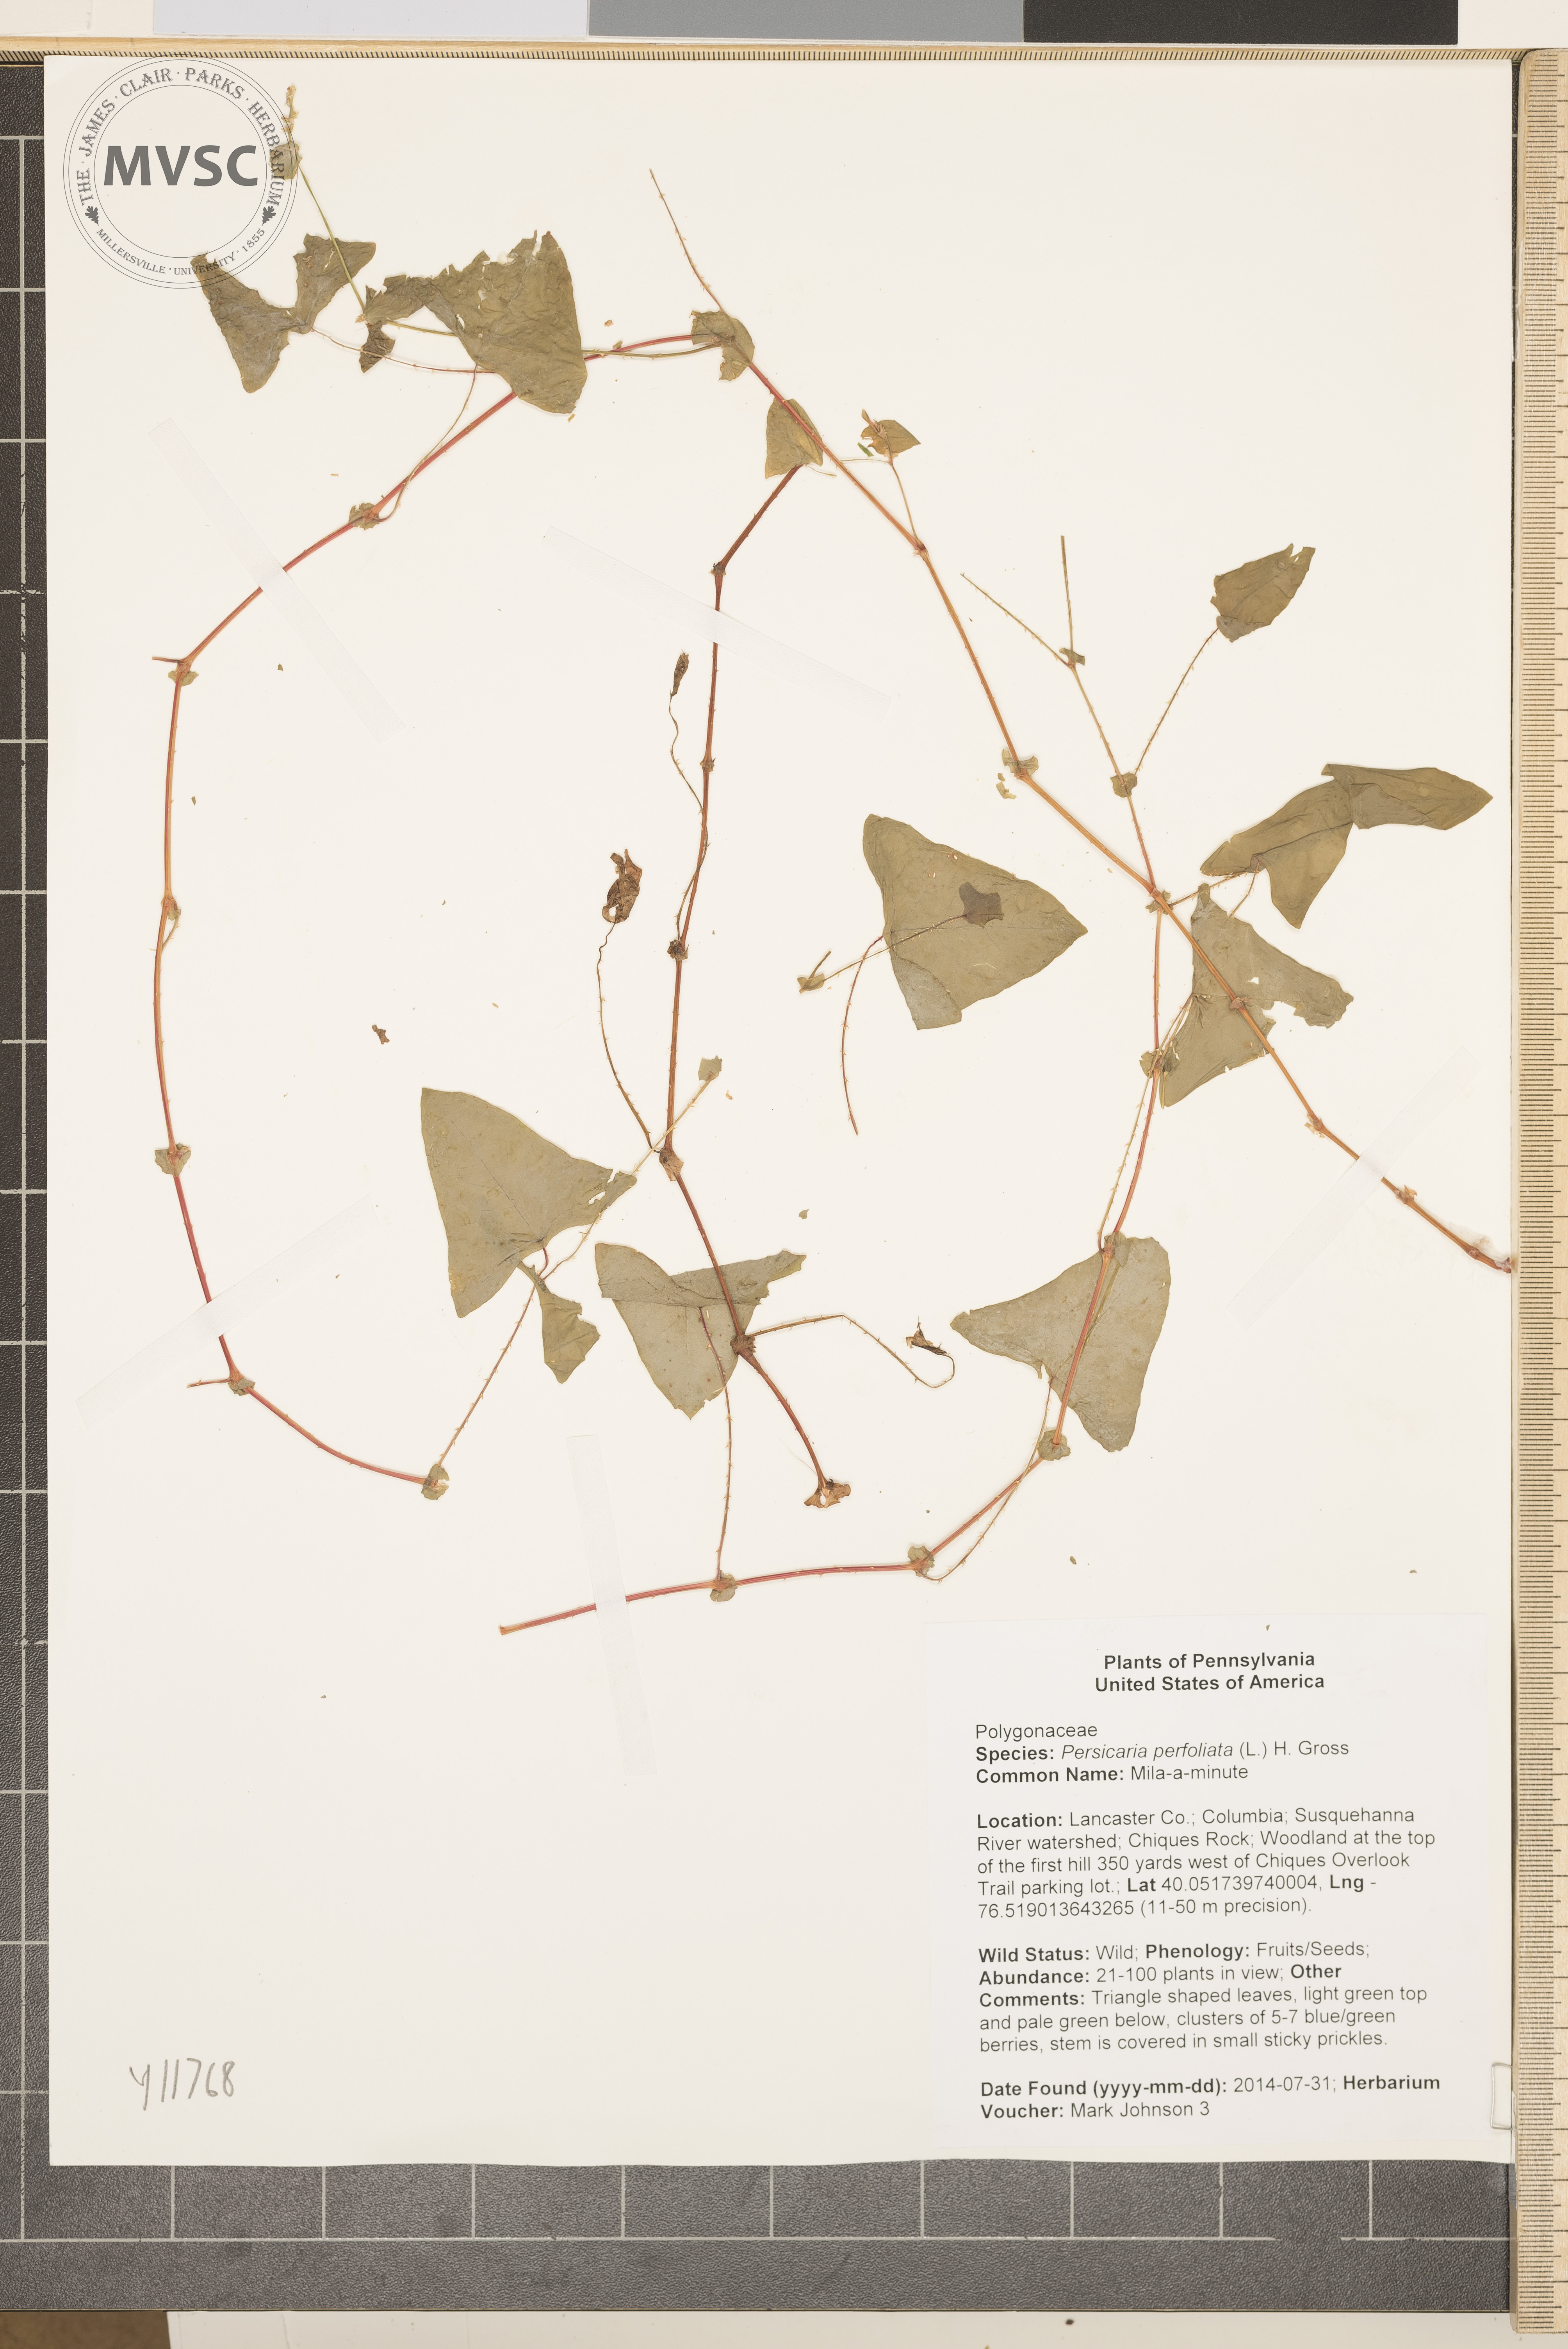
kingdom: Plantae
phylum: Tracheophyta
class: Magnoliopsida
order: Caryophyllales
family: Polygonaceae
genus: Persicaria
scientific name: Persicaria perfoliata
